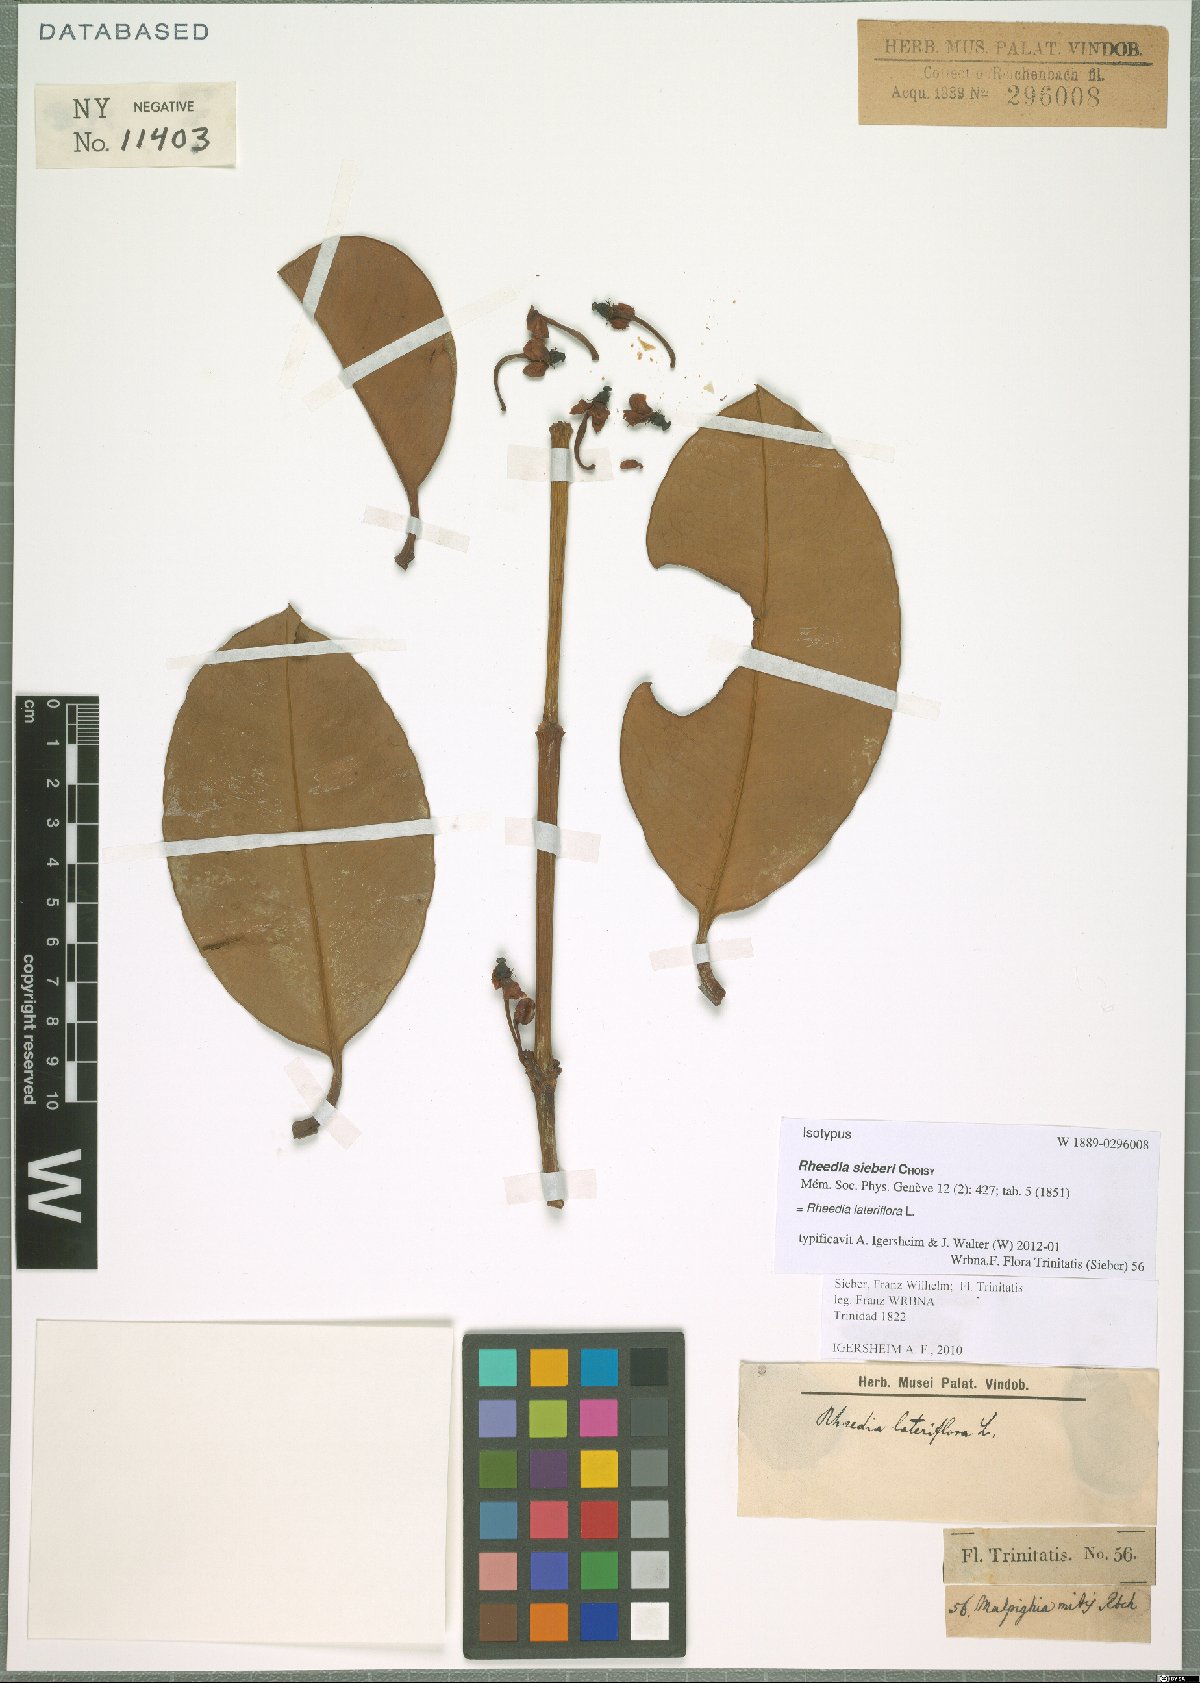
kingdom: Plantae
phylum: Tracheophyta
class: Magnoliopsida
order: Malpighiales
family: Clusiaceae
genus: Garcinia
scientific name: Garcinia humilis
